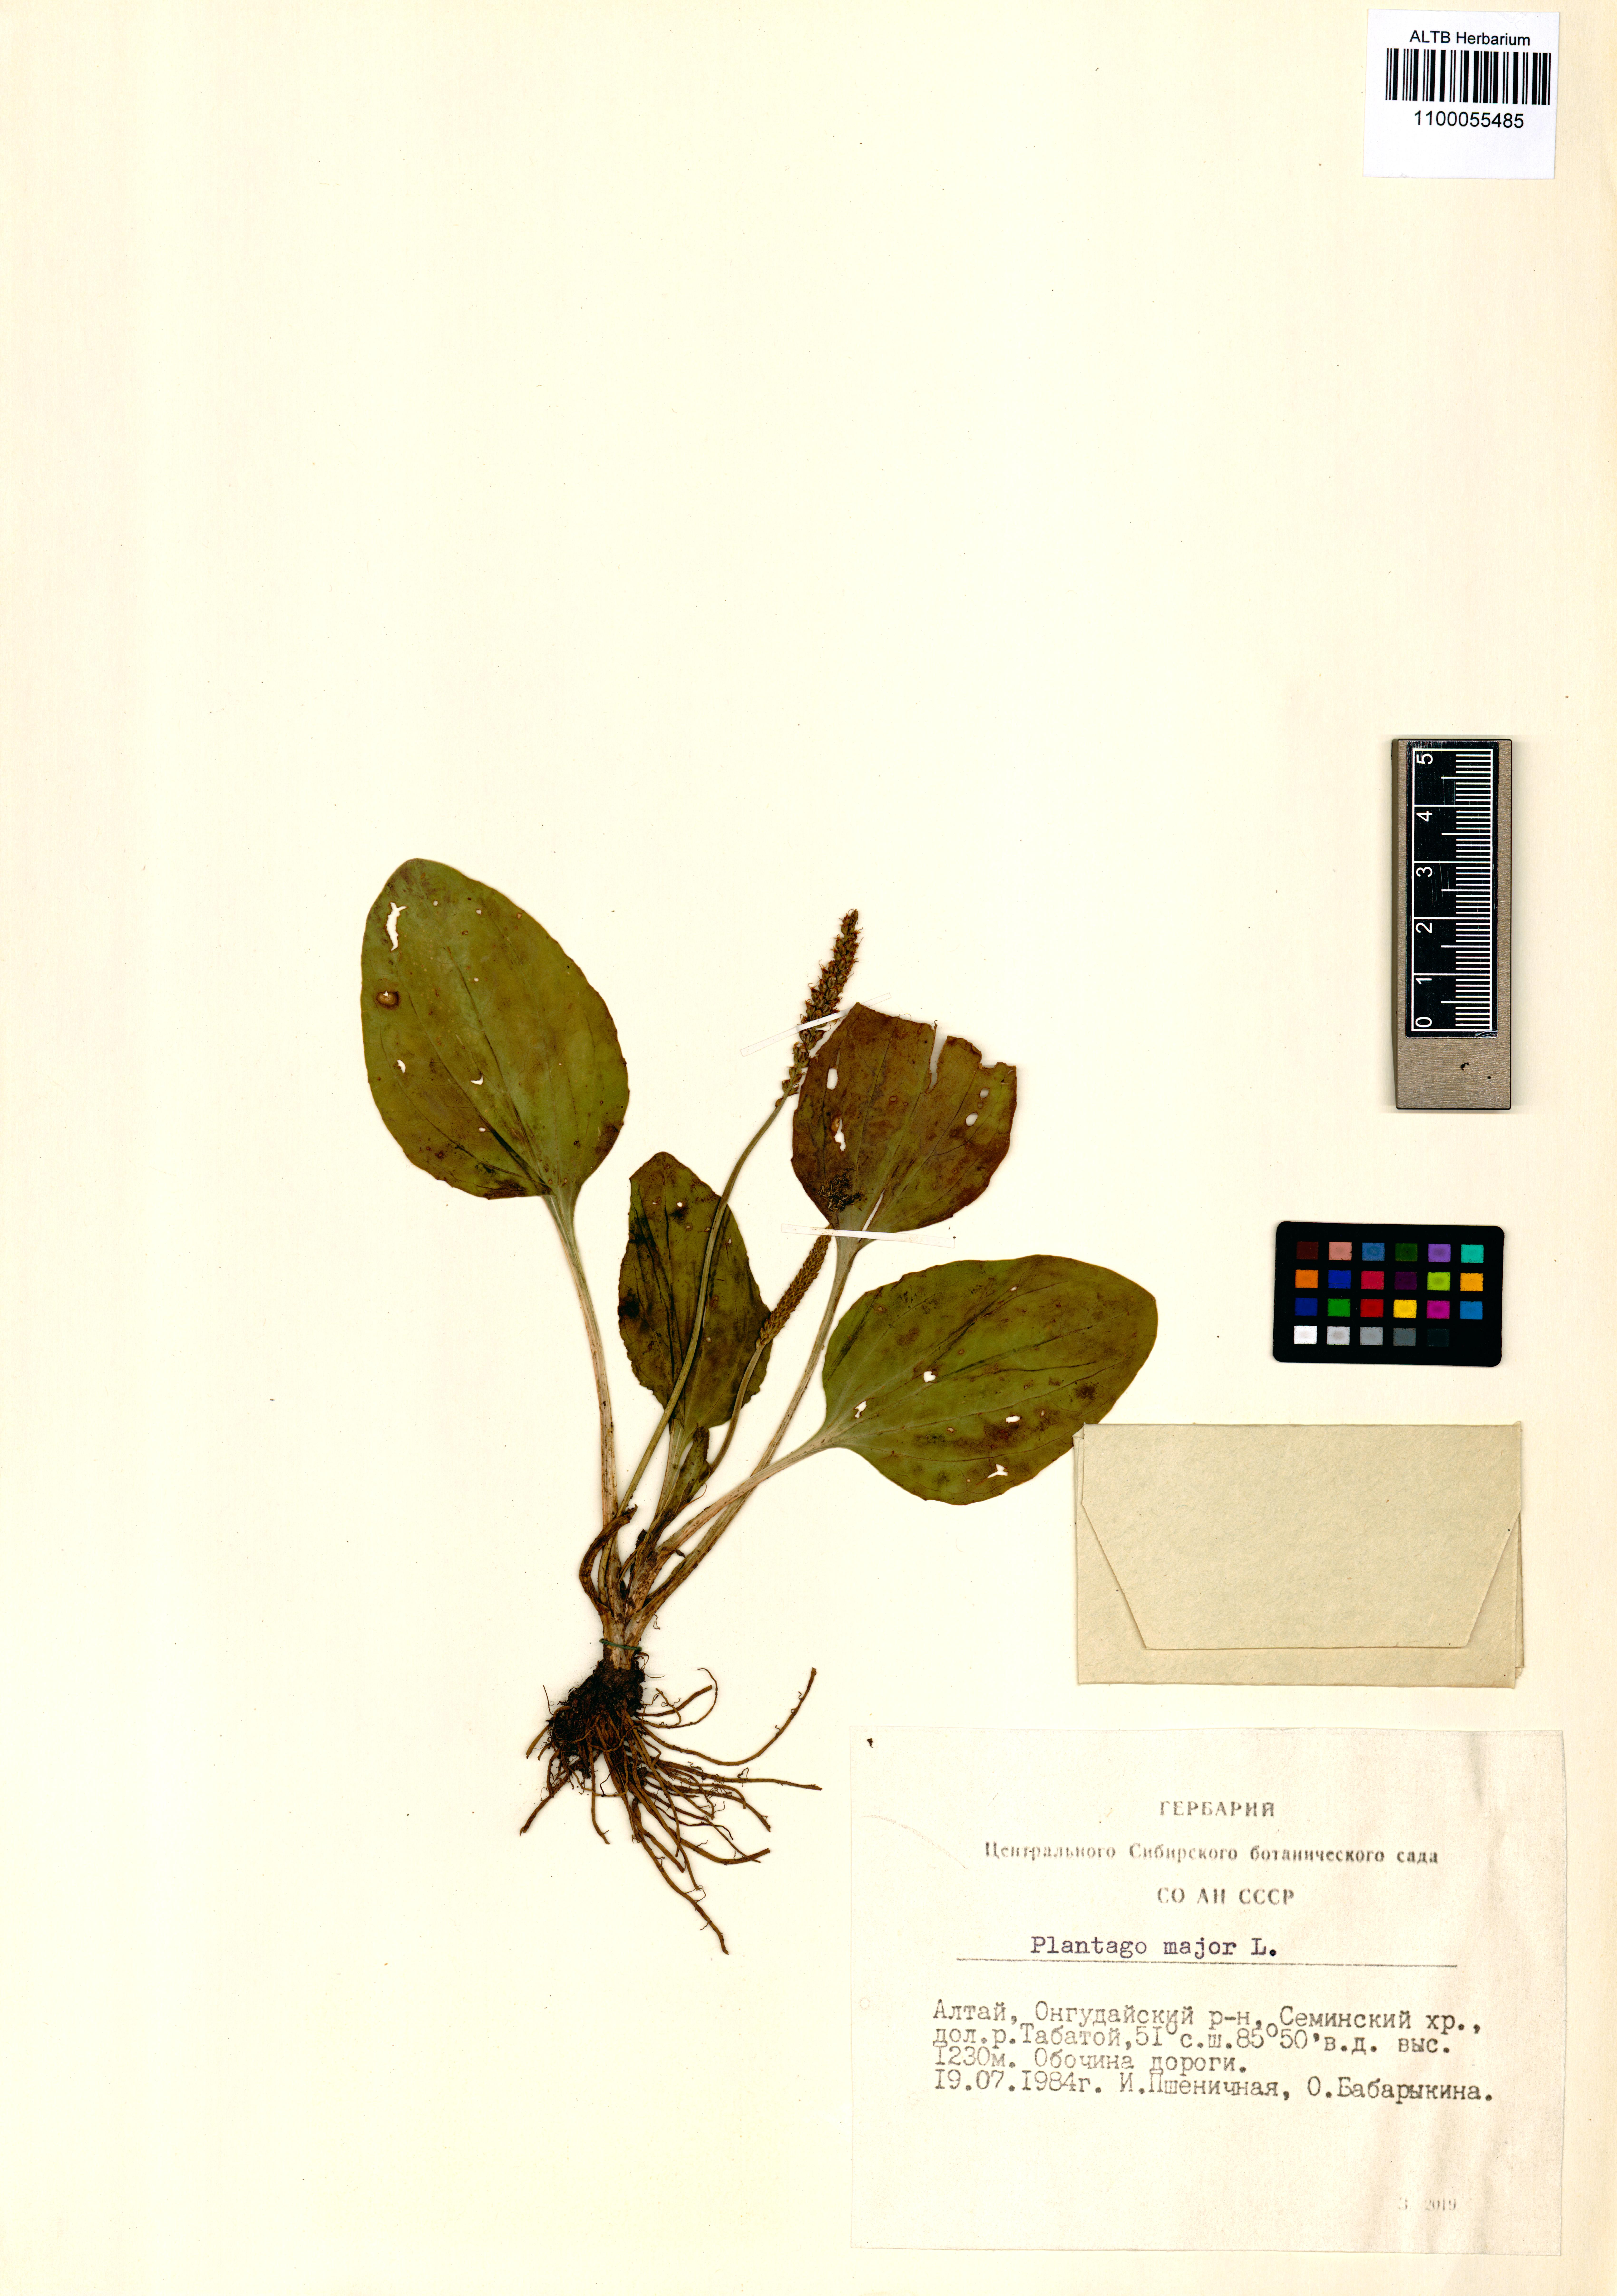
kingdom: Plantae
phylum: Tracheophyta
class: Magnoliopsida
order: Lamiales
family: Plantaginaceae
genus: Plantago
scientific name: Plantago major
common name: Common plantain
